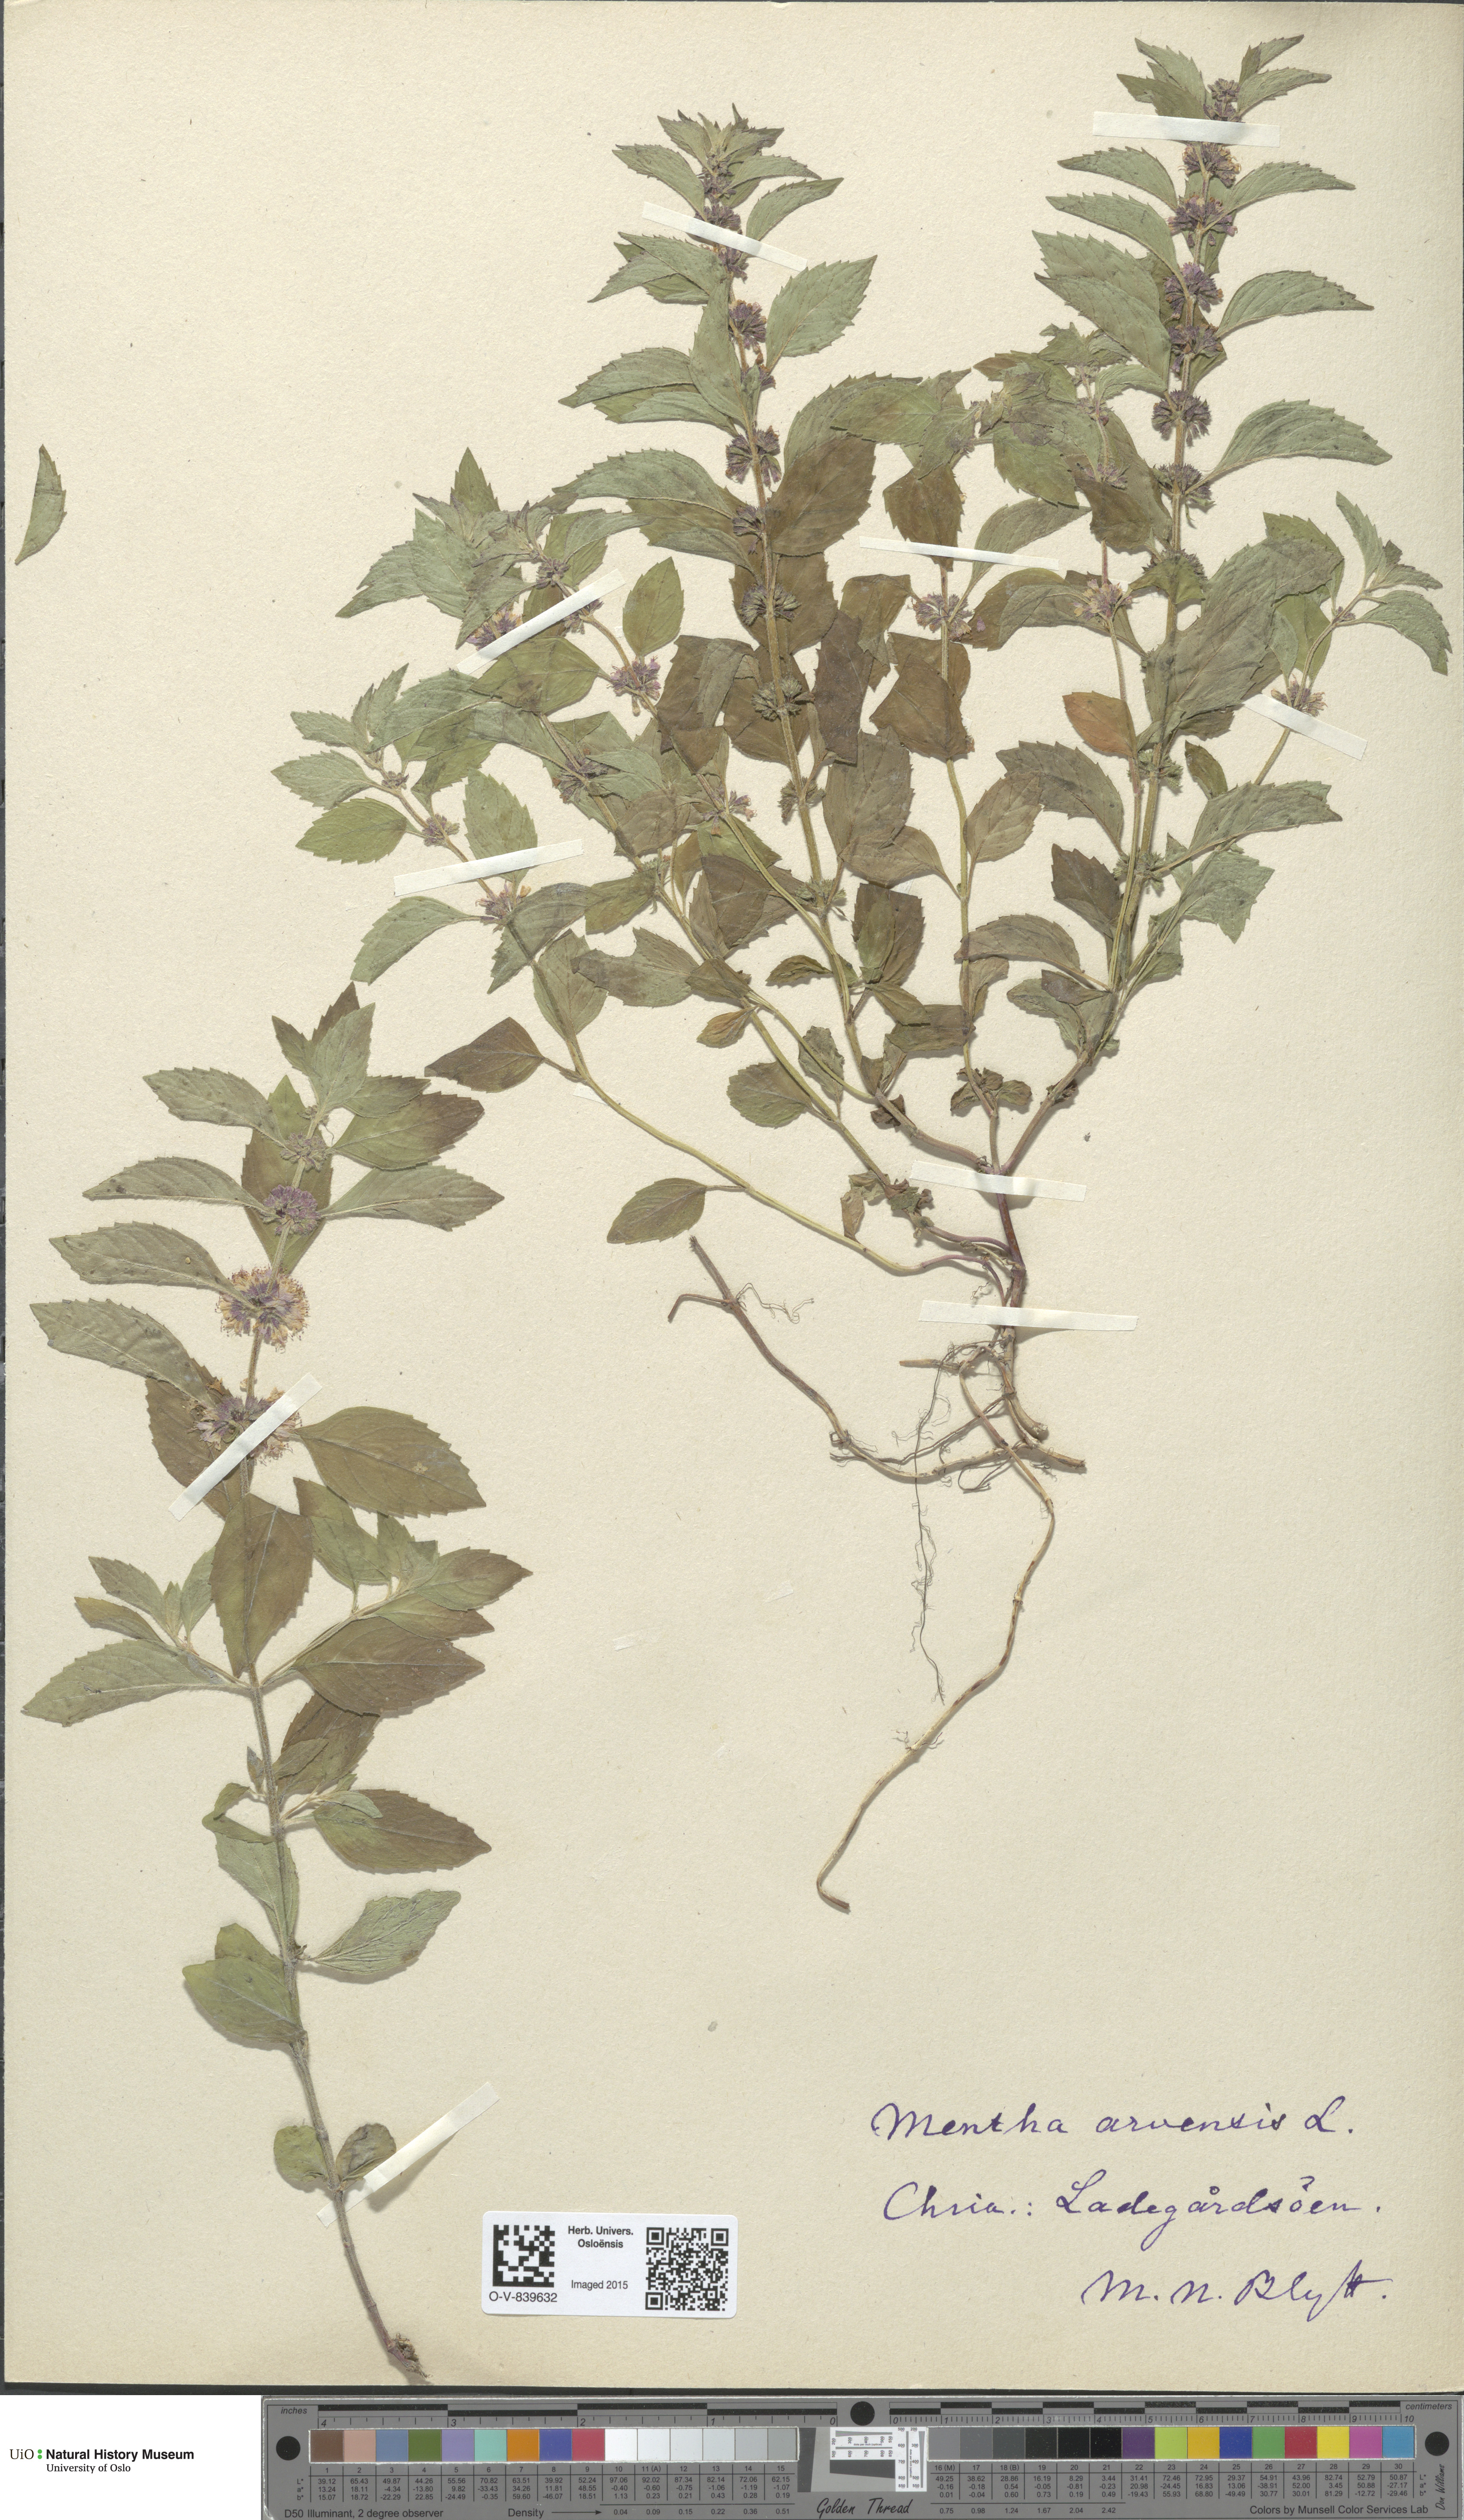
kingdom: Plantae
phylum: Tracheophyta
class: Magnoliopsida
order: Lamiales
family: Lamiaceae
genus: Mentha
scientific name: Mentha arvensis
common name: Corn mint
